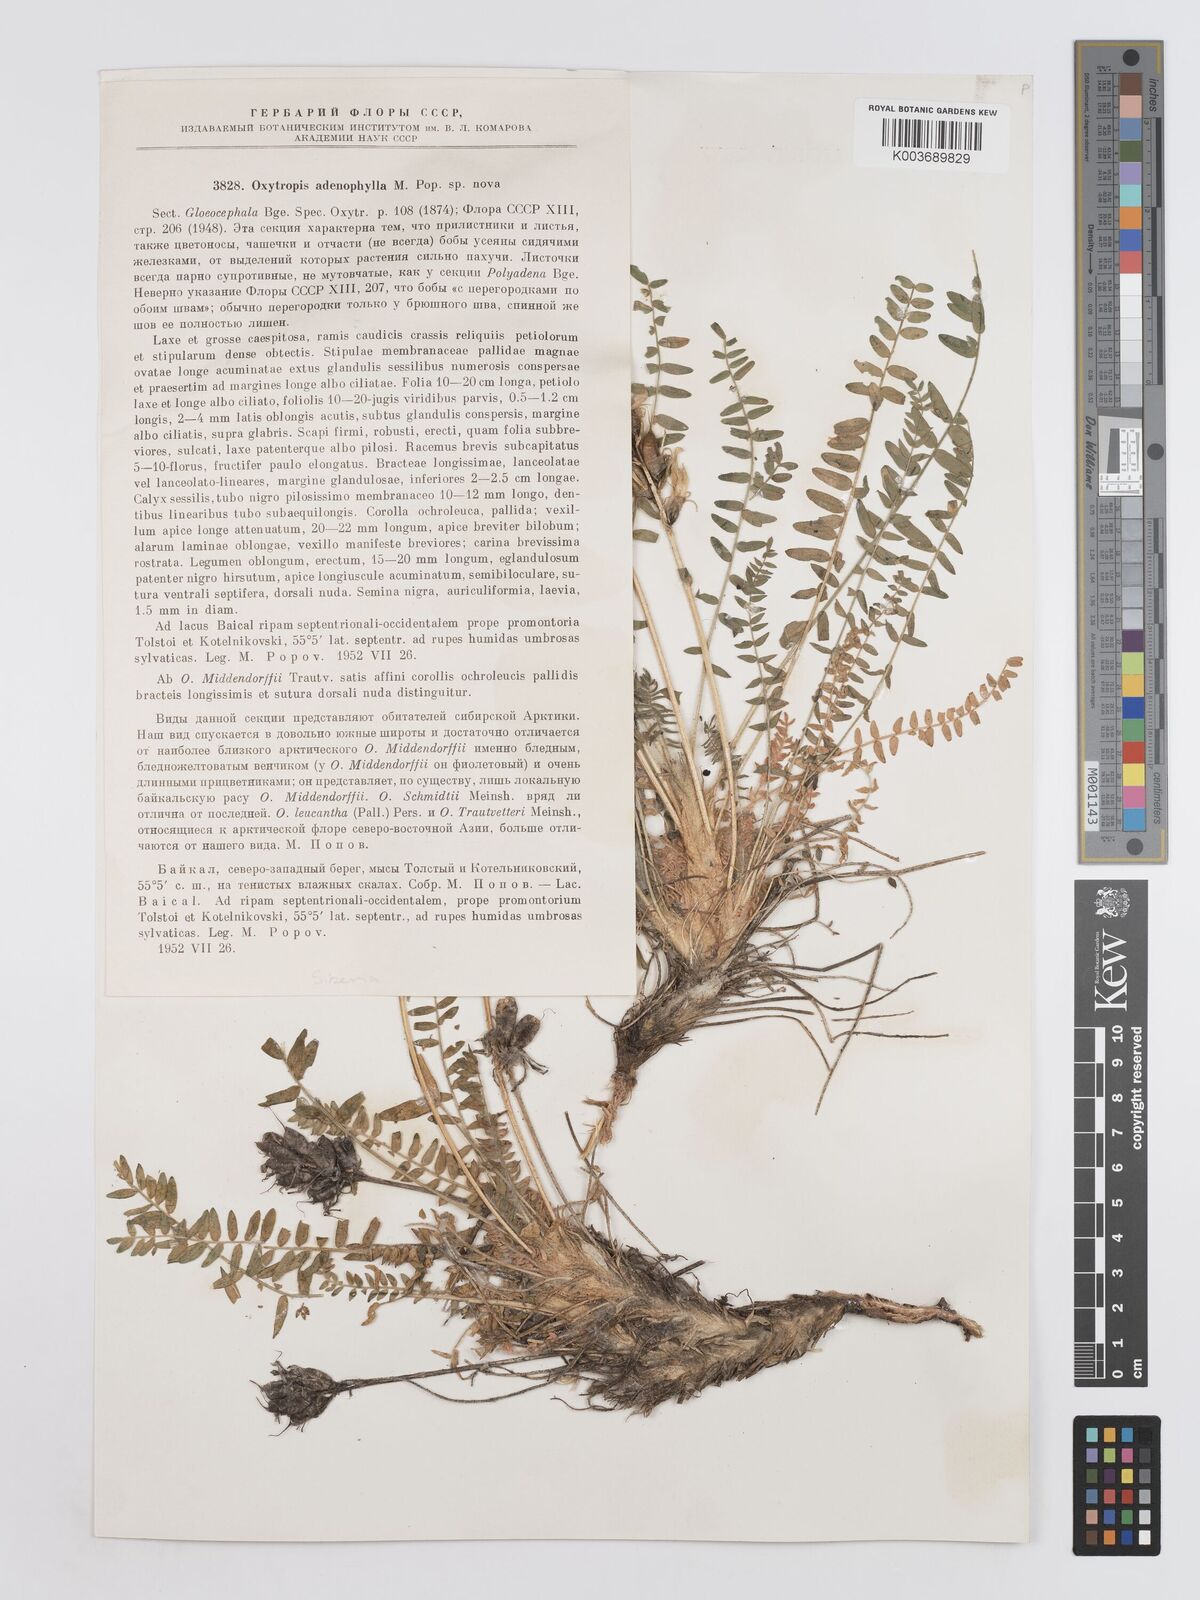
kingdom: Plantae
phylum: Tracheophyta
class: Magnoliopsida
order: Fabales
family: Fabaceae
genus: Oxytropis
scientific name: Oxytropis adenophylla
